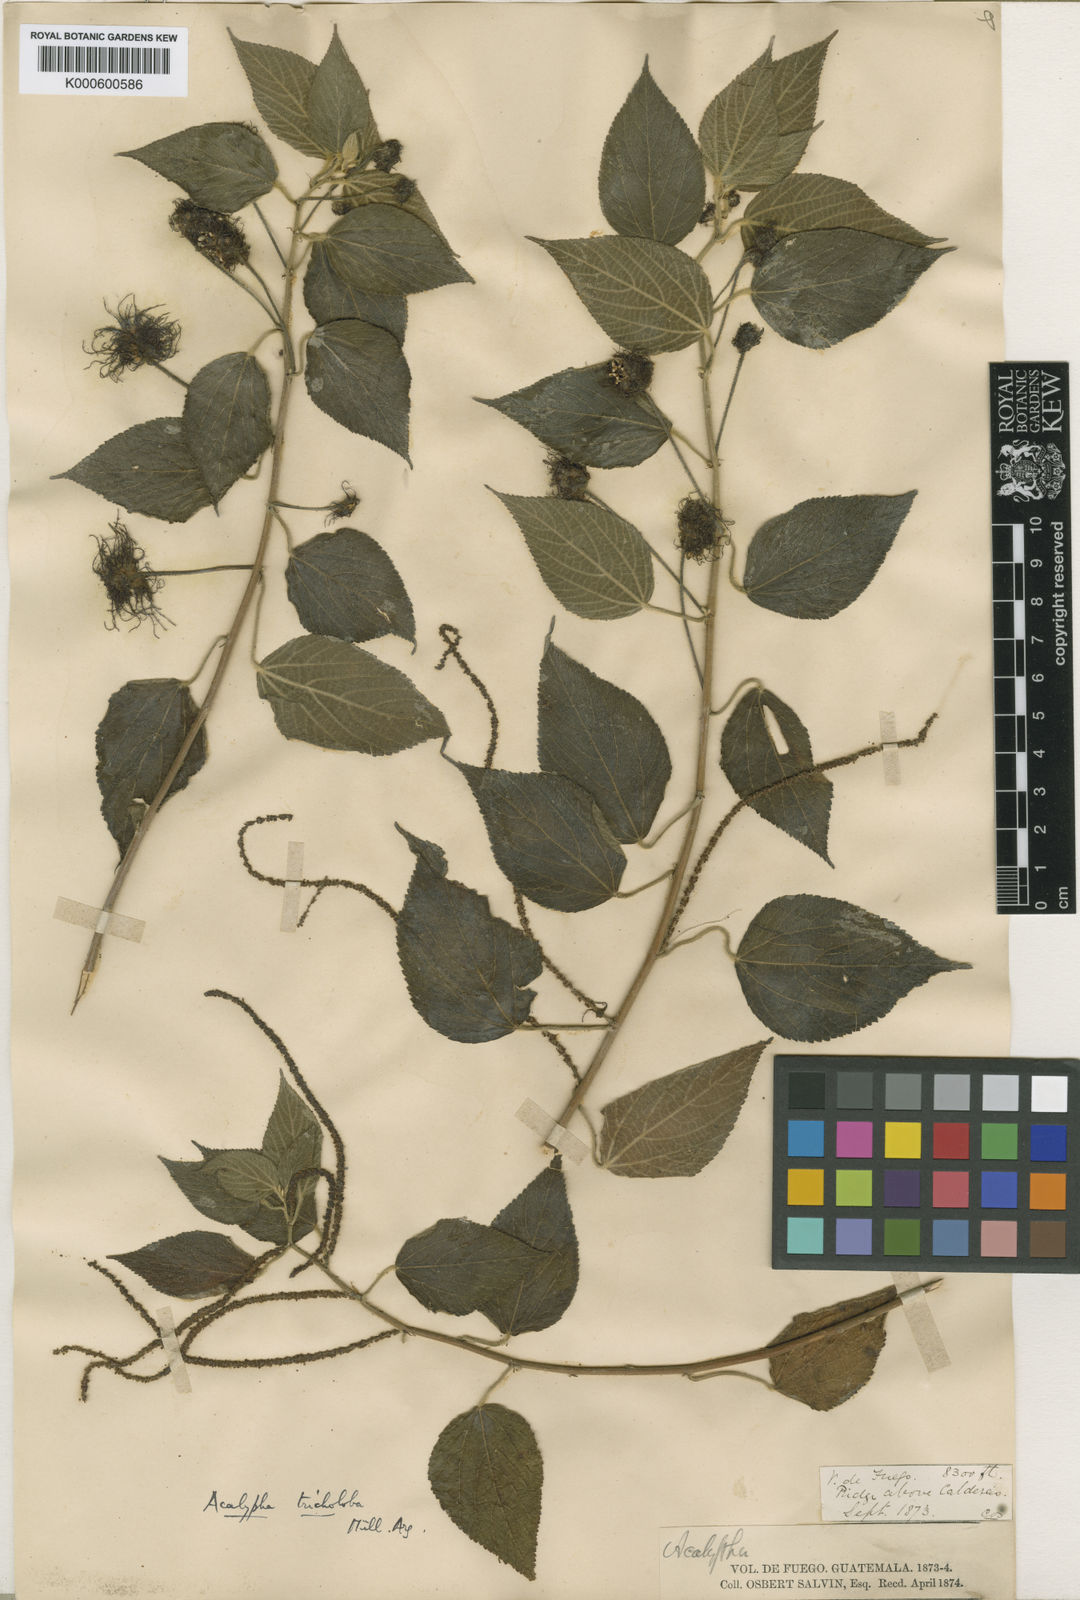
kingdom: Plantae
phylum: Tracheophyta
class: Magnoliopsida
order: Malpighiales
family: Euphorbiaceae
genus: Acalypha
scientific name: Acalypha
